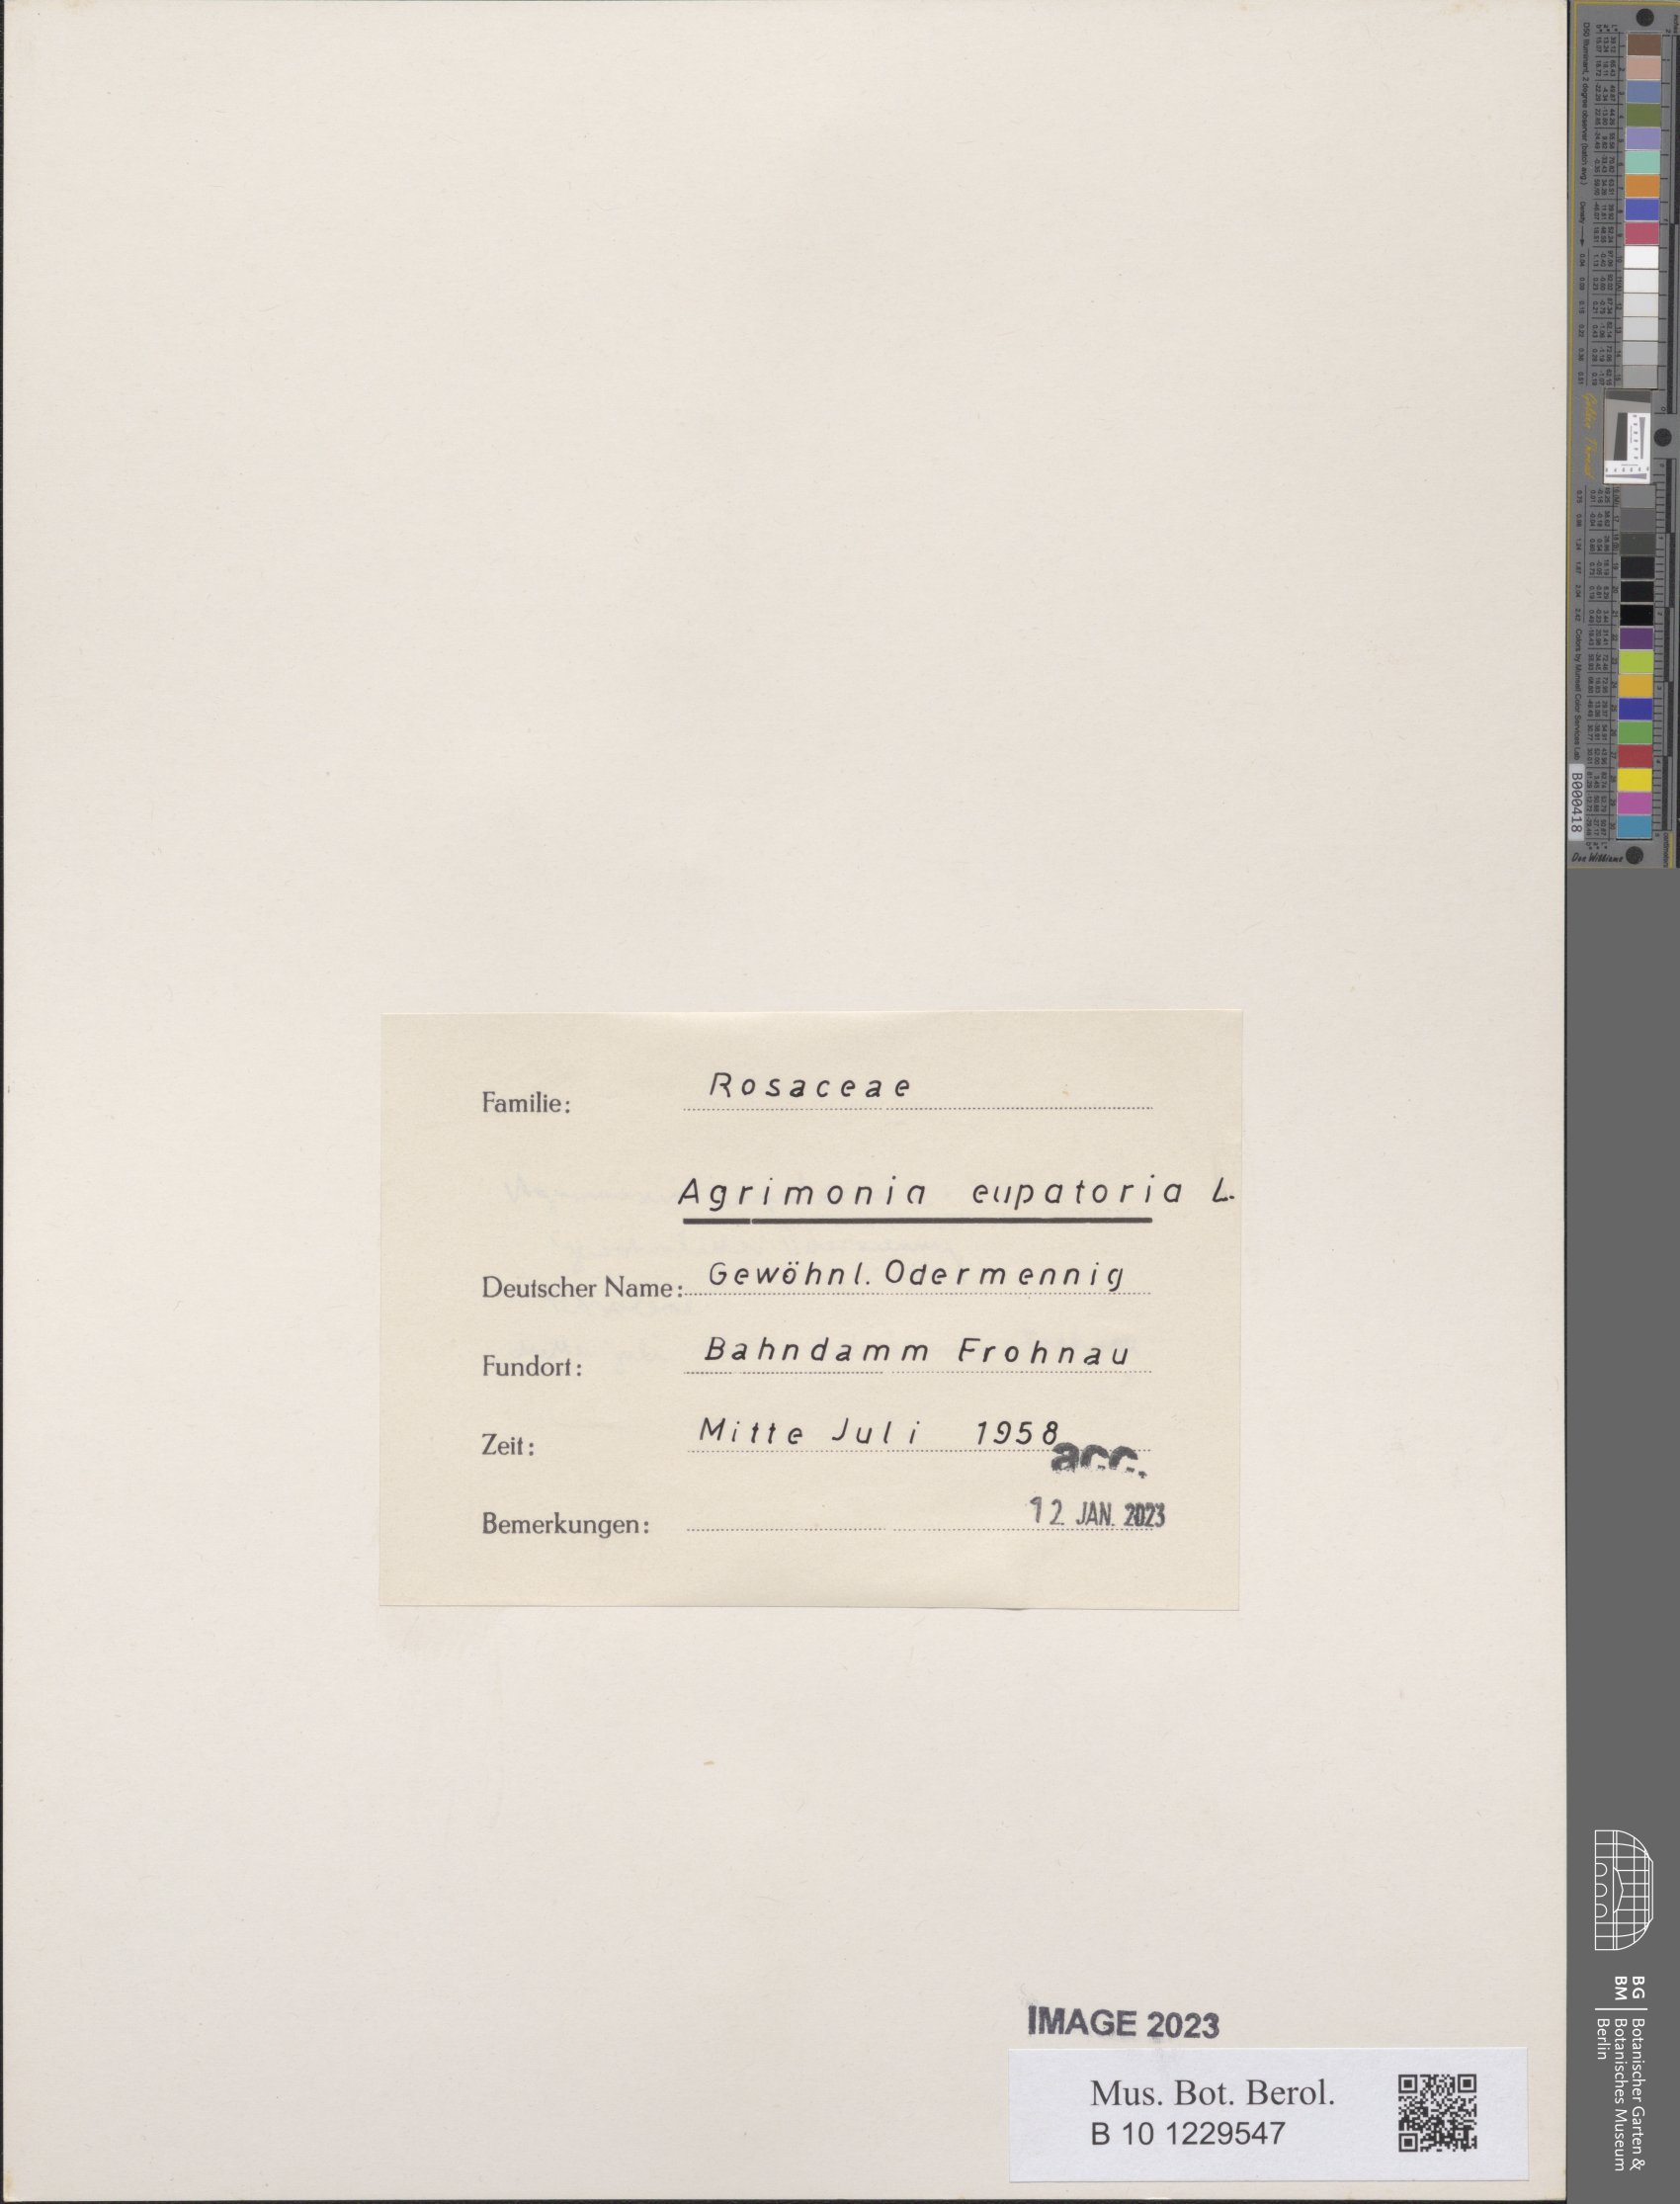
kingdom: Plantae
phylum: Tracheophyta
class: Magnoliopsida
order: Rosales
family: Rosaceae
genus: Agrimonia
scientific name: Agrimonia eupatoria
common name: Agrimony
